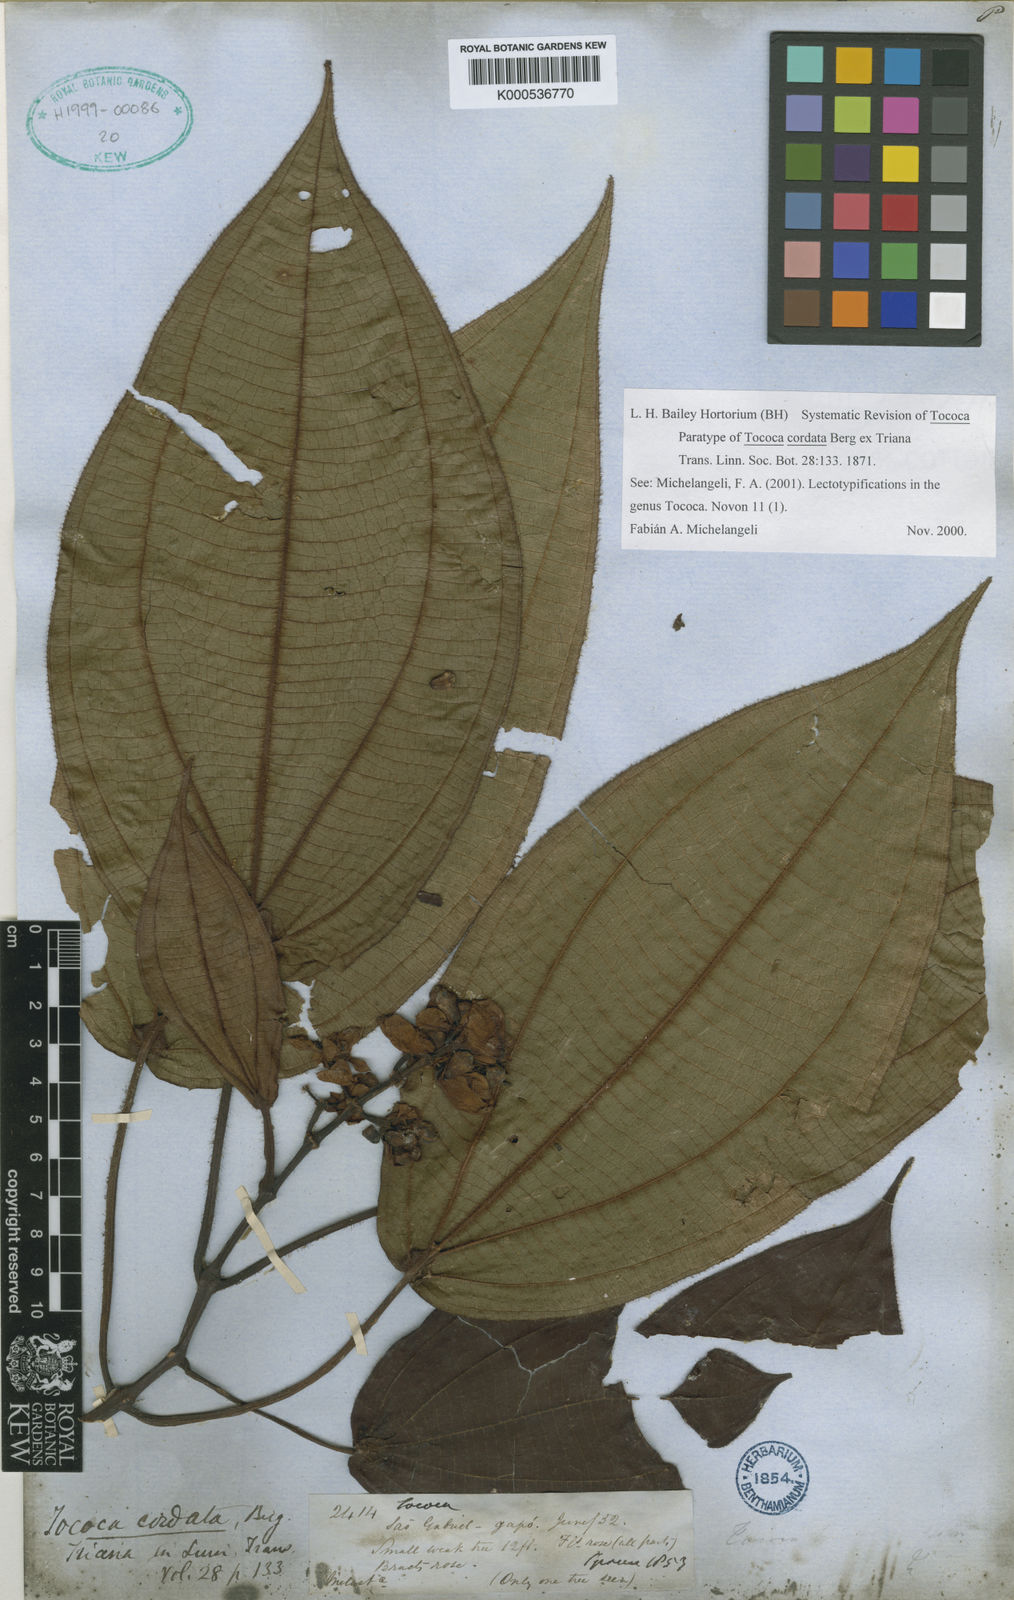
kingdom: Plantae
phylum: Tracheophyta
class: Magnoliopsida
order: Myrtales
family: Melastomataceae
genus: Miconia
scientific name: Miconia tococordata
